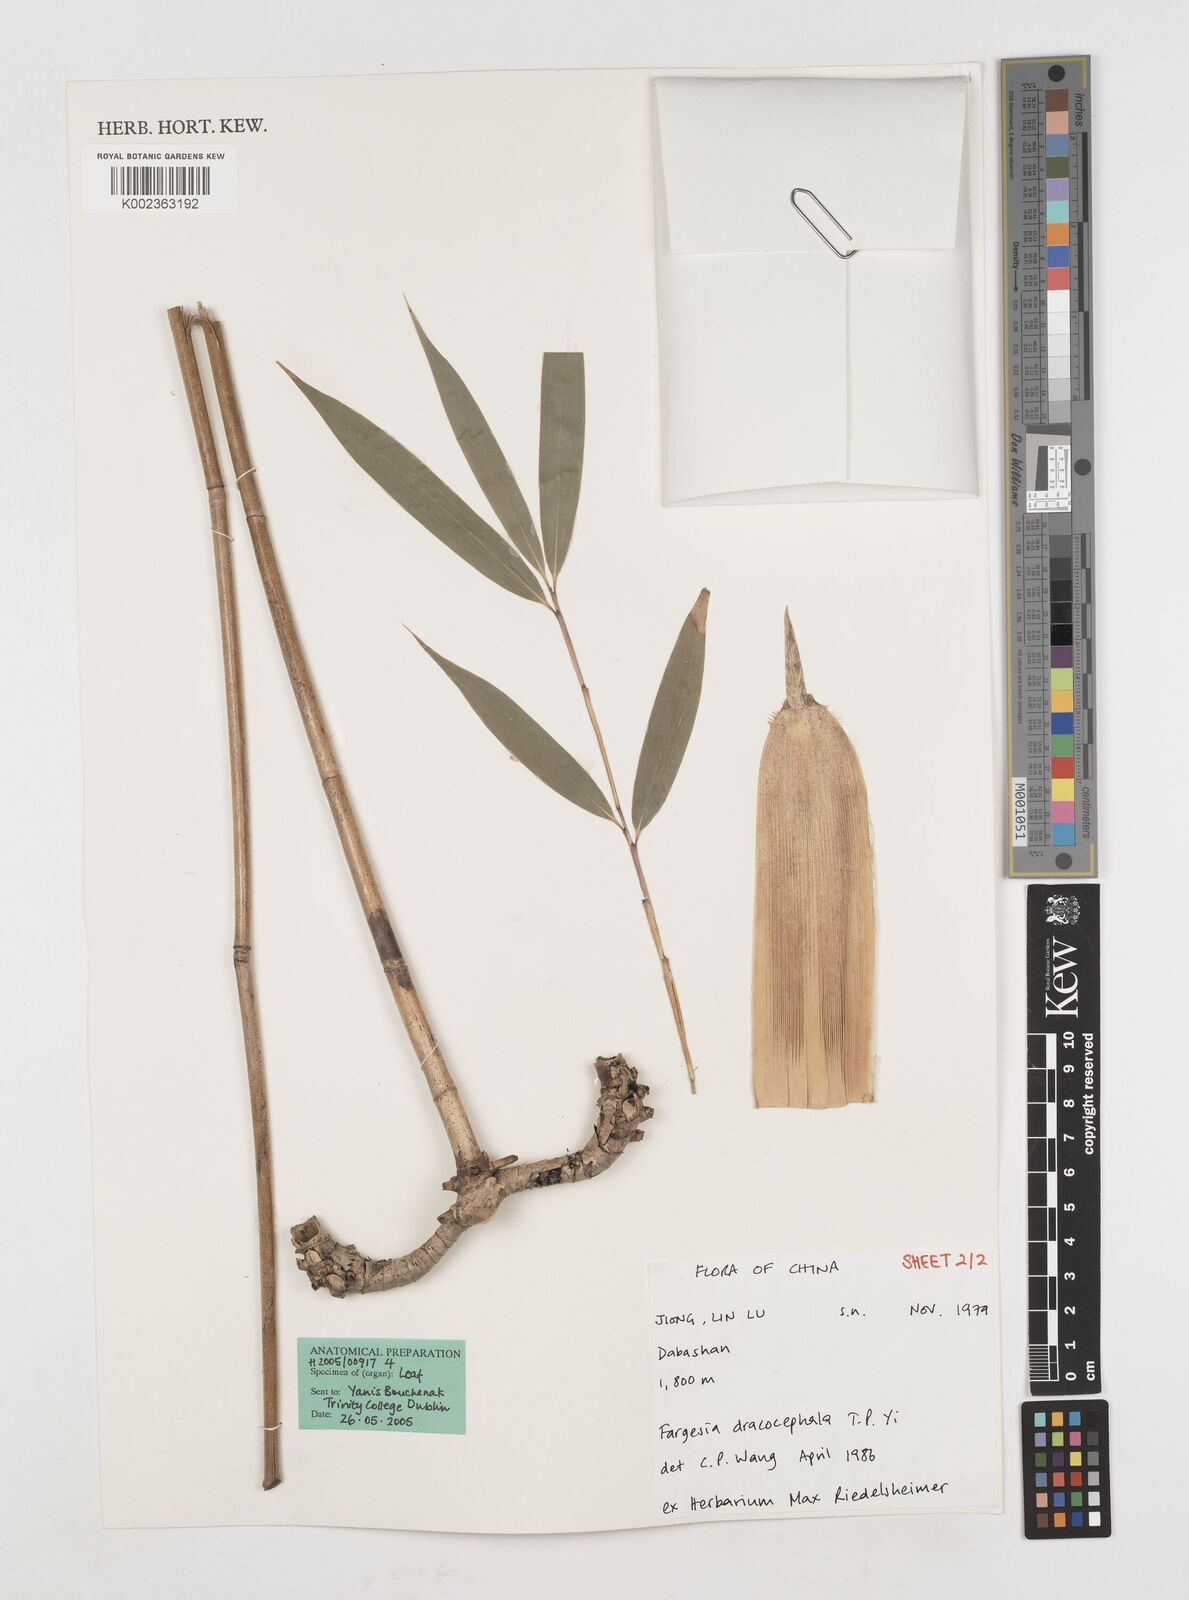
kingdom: Plantae
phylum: Tracheophyta
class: Liliopsida
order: Poales
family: Poaceae
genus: Fargesia
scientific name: Fargesia dracocephala
